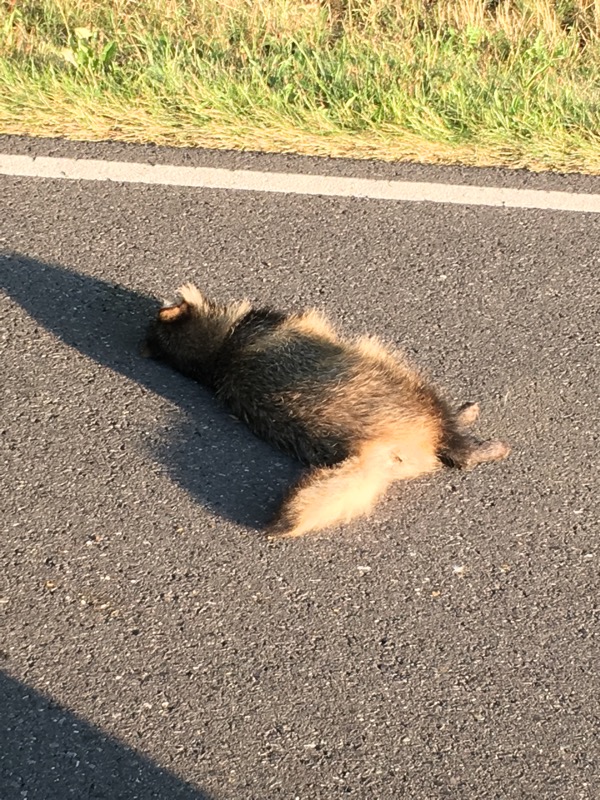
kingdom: Animalia
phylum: Chordata
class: Mammalia
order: Carnivora
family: Procyonidae
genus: Procyon
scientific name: Procyon lotor
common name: Raccoon
